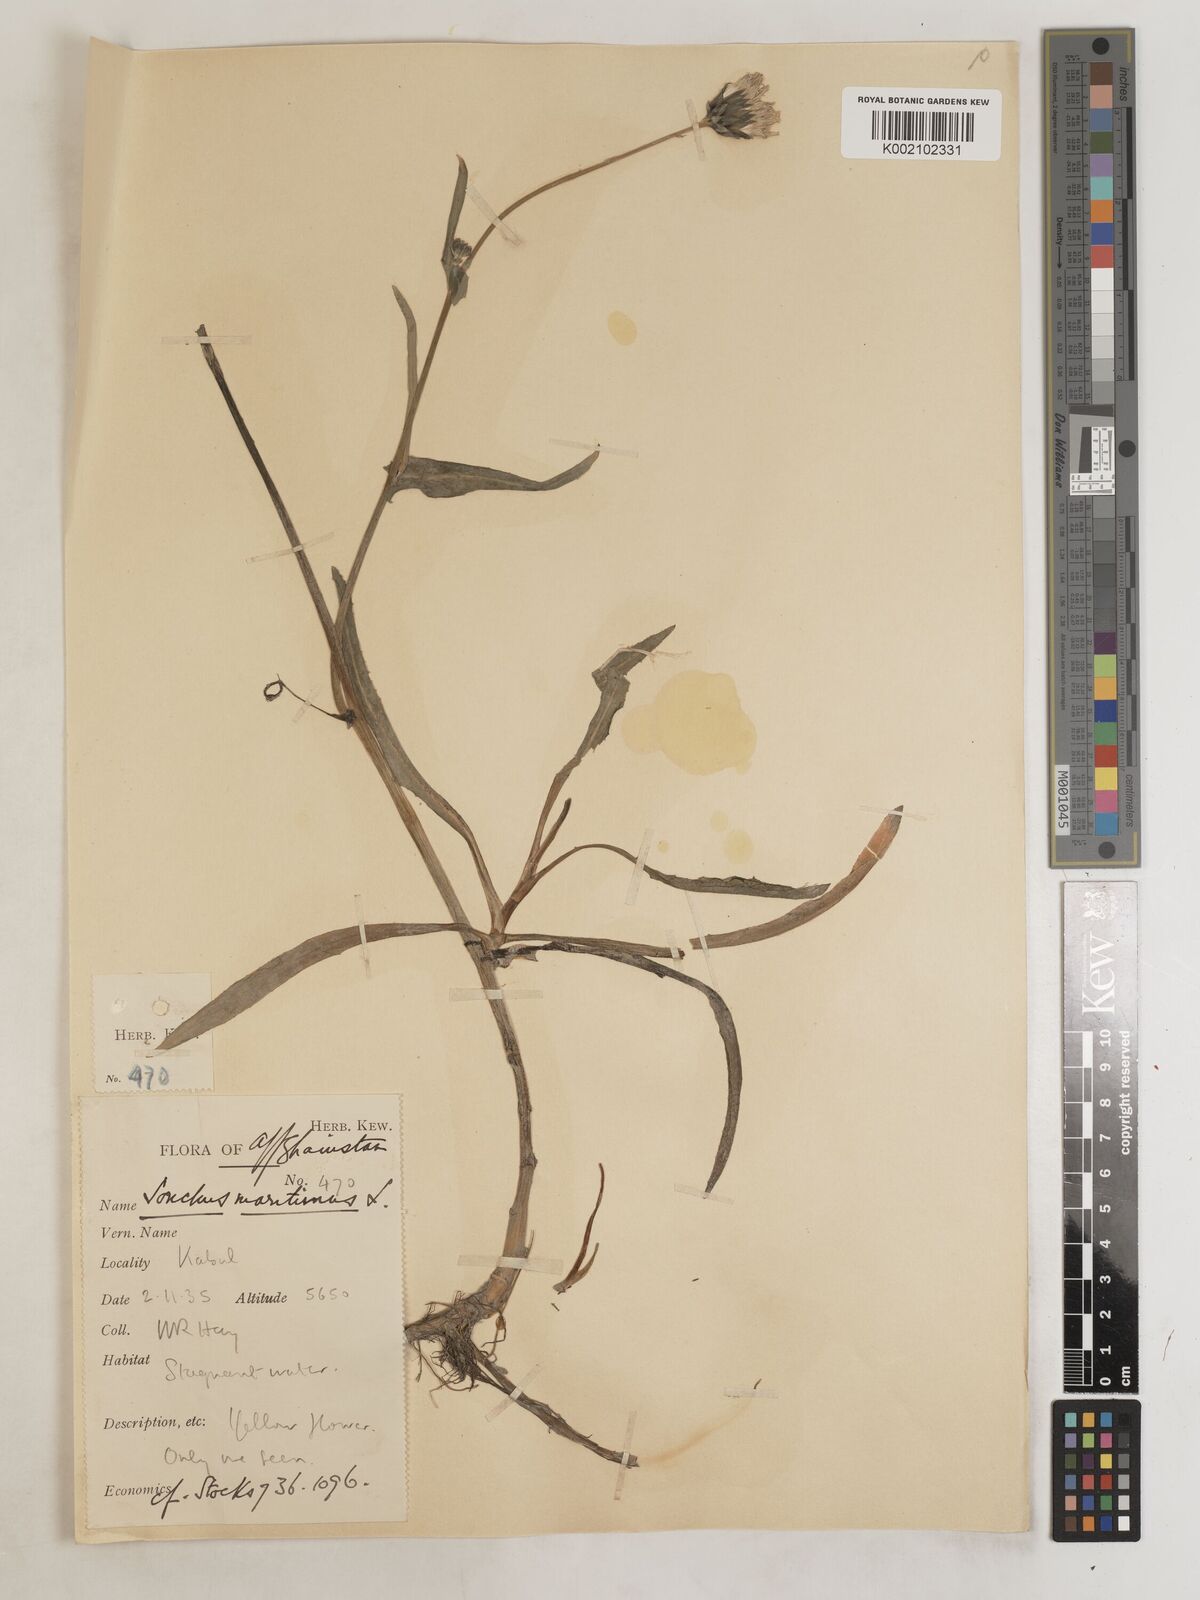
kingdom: Plantae
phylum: Tracheophyta
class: Magnoliopsida
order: Asterales
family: Asteraceae
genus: Sonchus
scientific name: Sonchus maritimus
